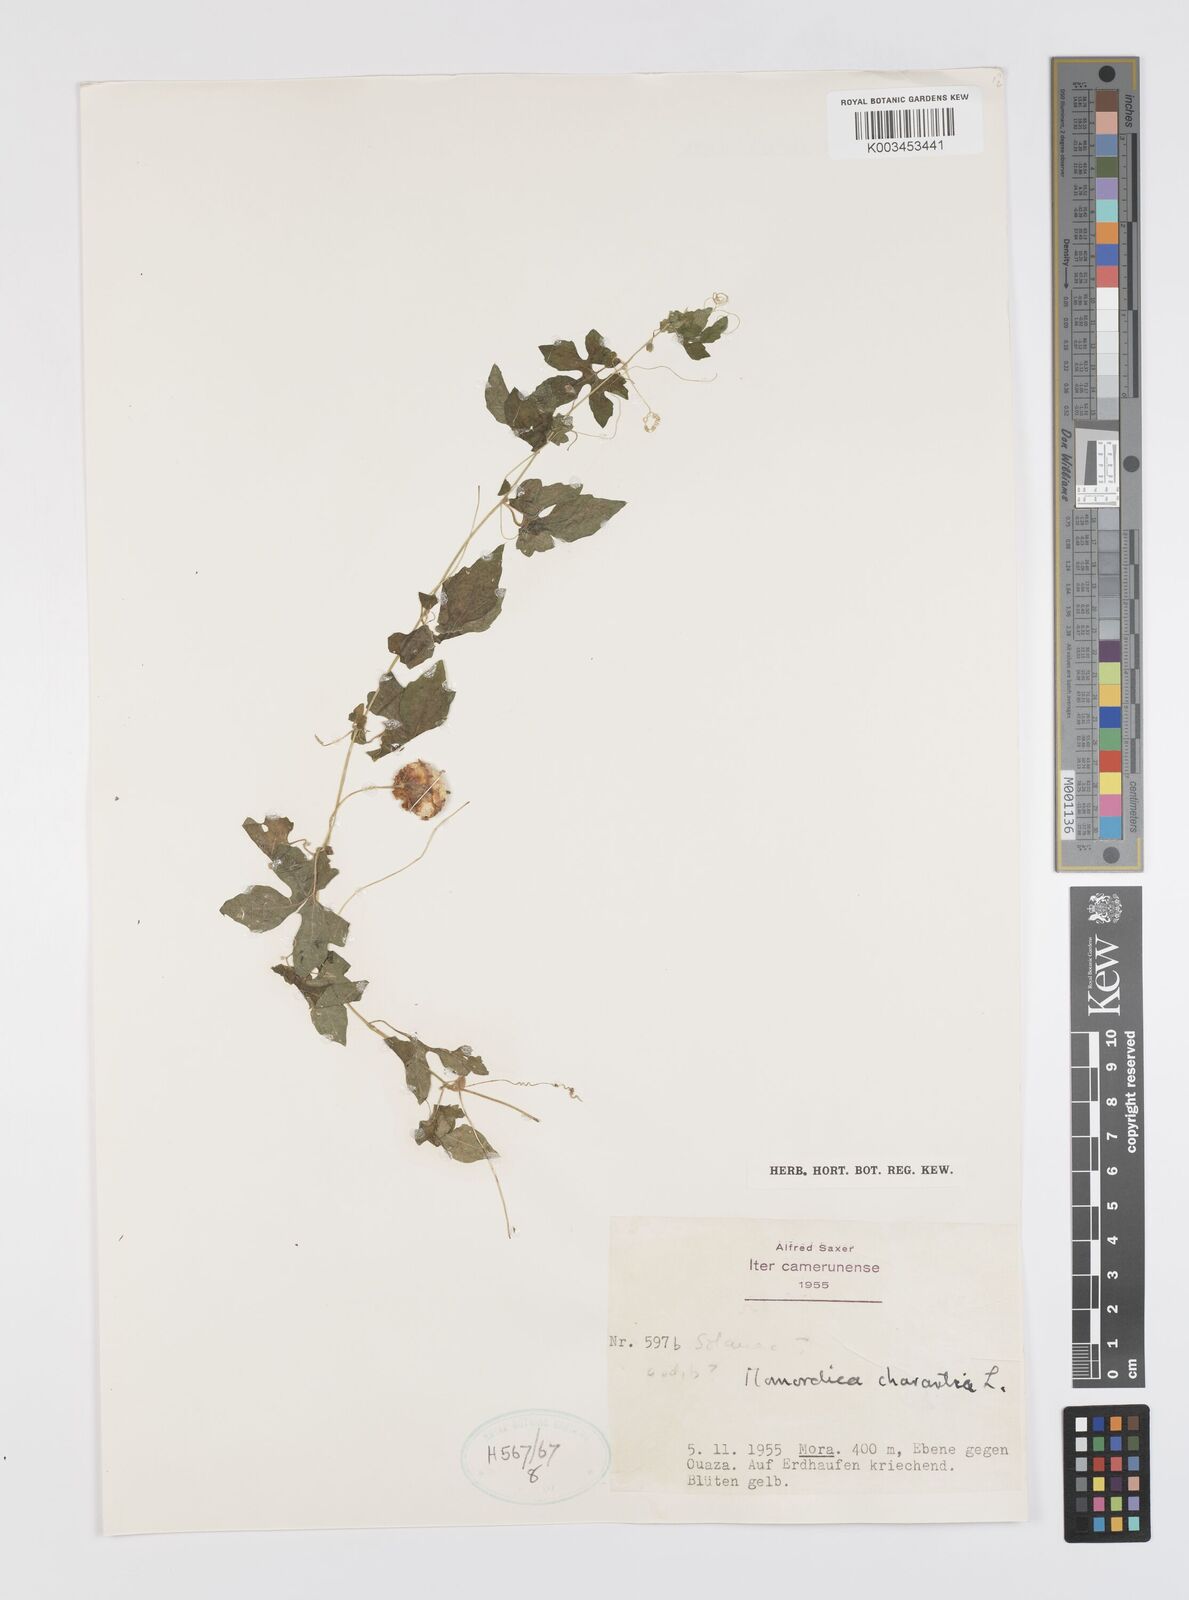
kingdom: Plantae
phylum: Tracheophyta
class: Magnoliopsida
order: Cucurbitales
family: Cucurbitaceae
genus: Momordica
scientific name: Momordica charantia
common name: Balsampear
